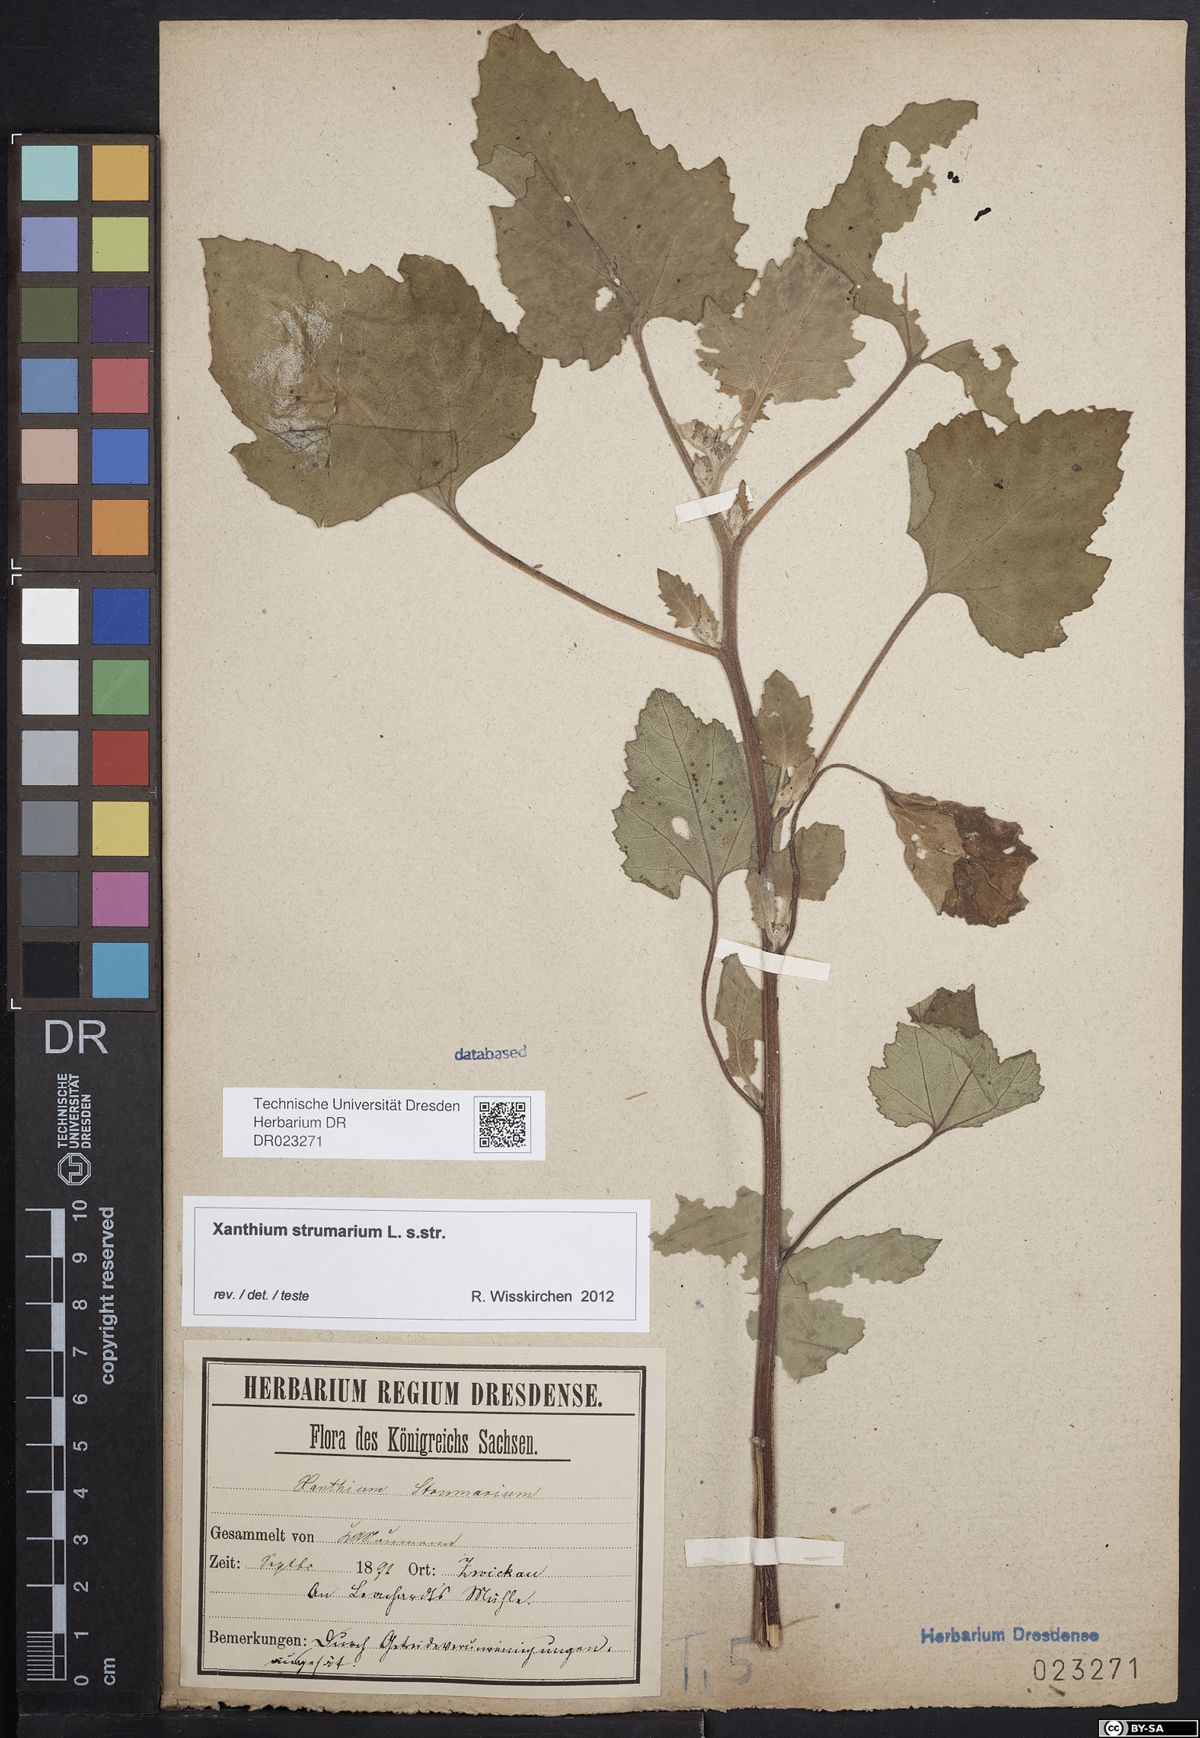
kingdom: Plantae
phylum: Tracheophyta
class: Magnoliopsida
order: Asterales
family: Asteraceae
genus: Xanthium
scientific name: Xanthium strumarium
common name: Rough cocklebur
